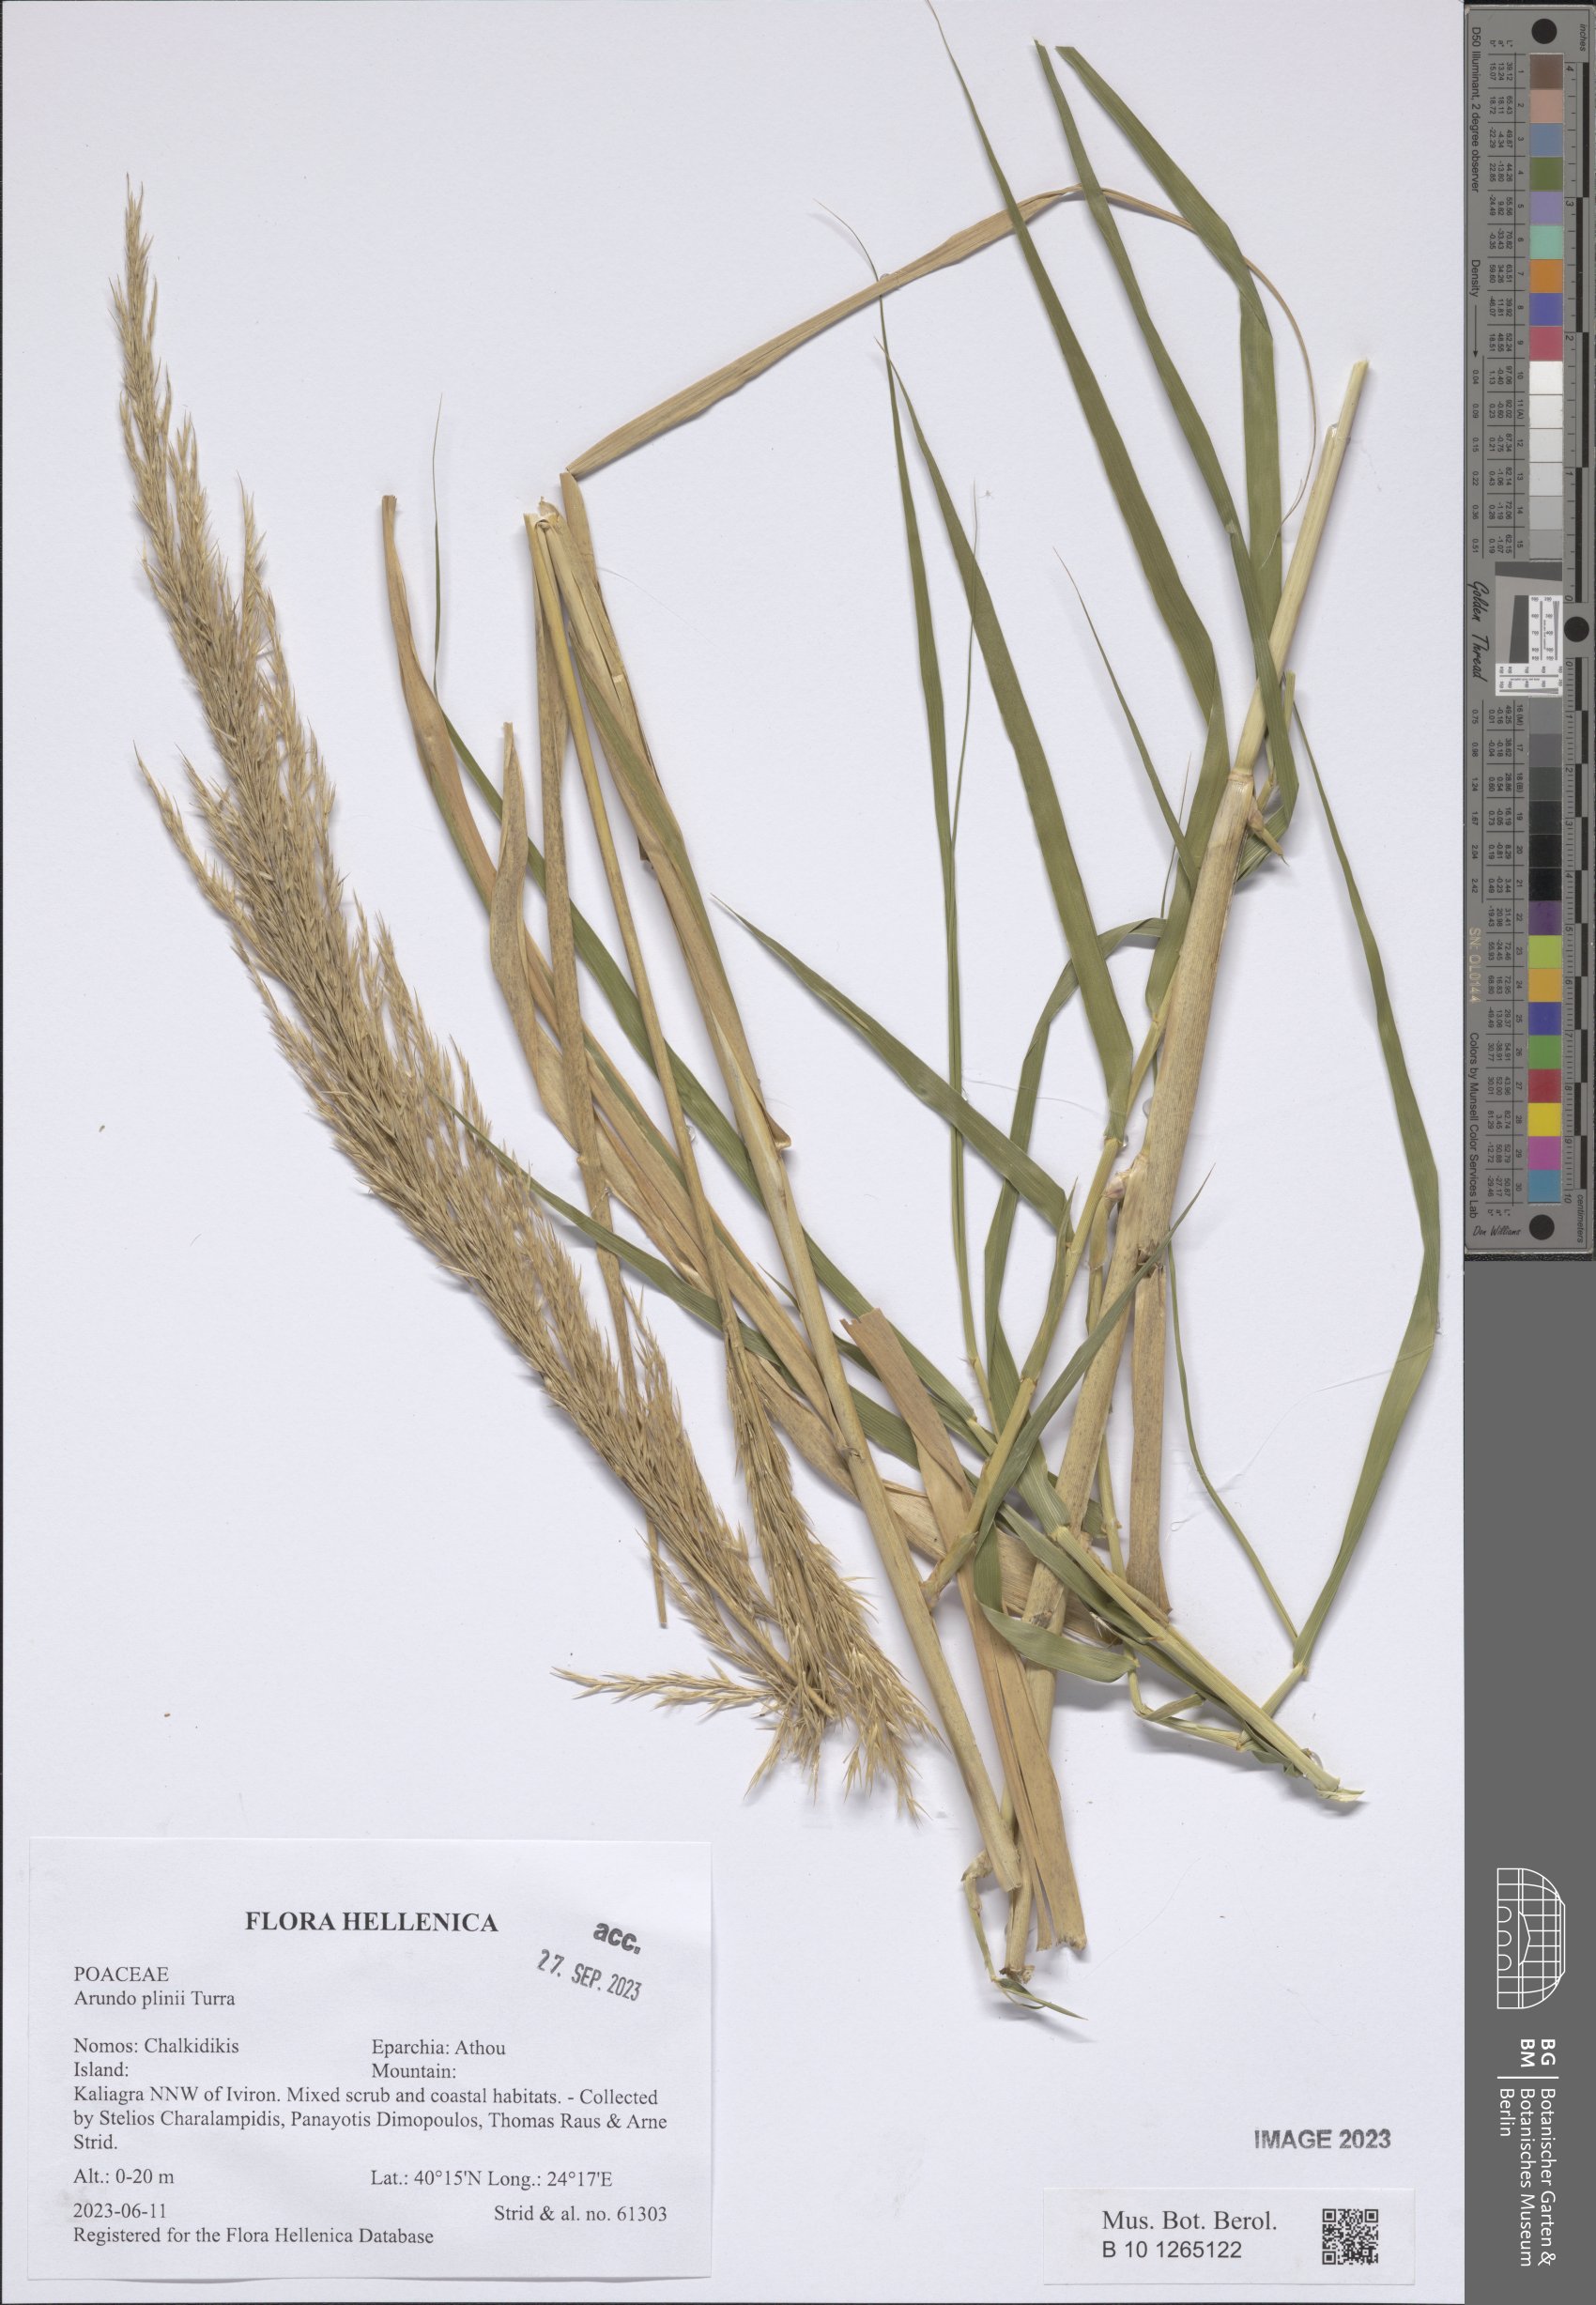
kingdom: Plantae
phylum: Tracheophyta
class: Liliopsida
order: Poales
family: Poaceae
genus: Arundo
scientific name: Arundo plinii
